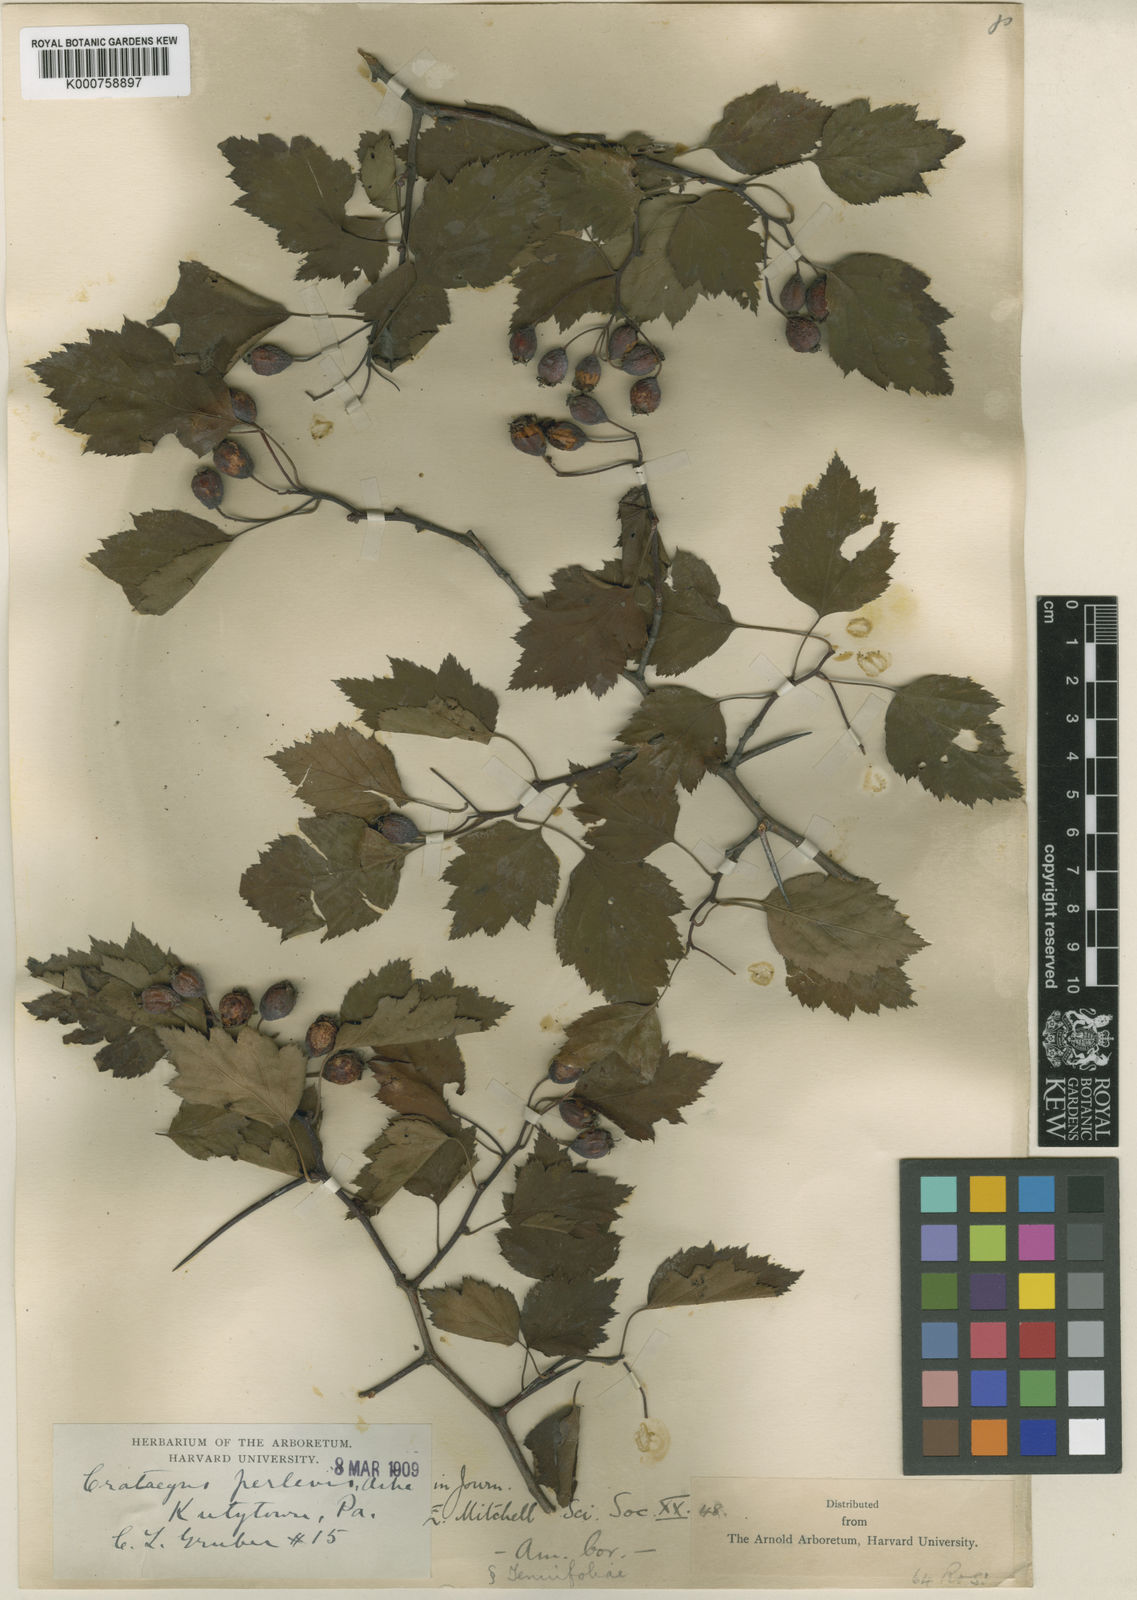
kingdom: Plantae
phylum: Tracheophyta
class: Magnoliopsida
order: Rosales
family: Rosaceae
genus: Crataegus
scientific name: Crataegus perlevis
